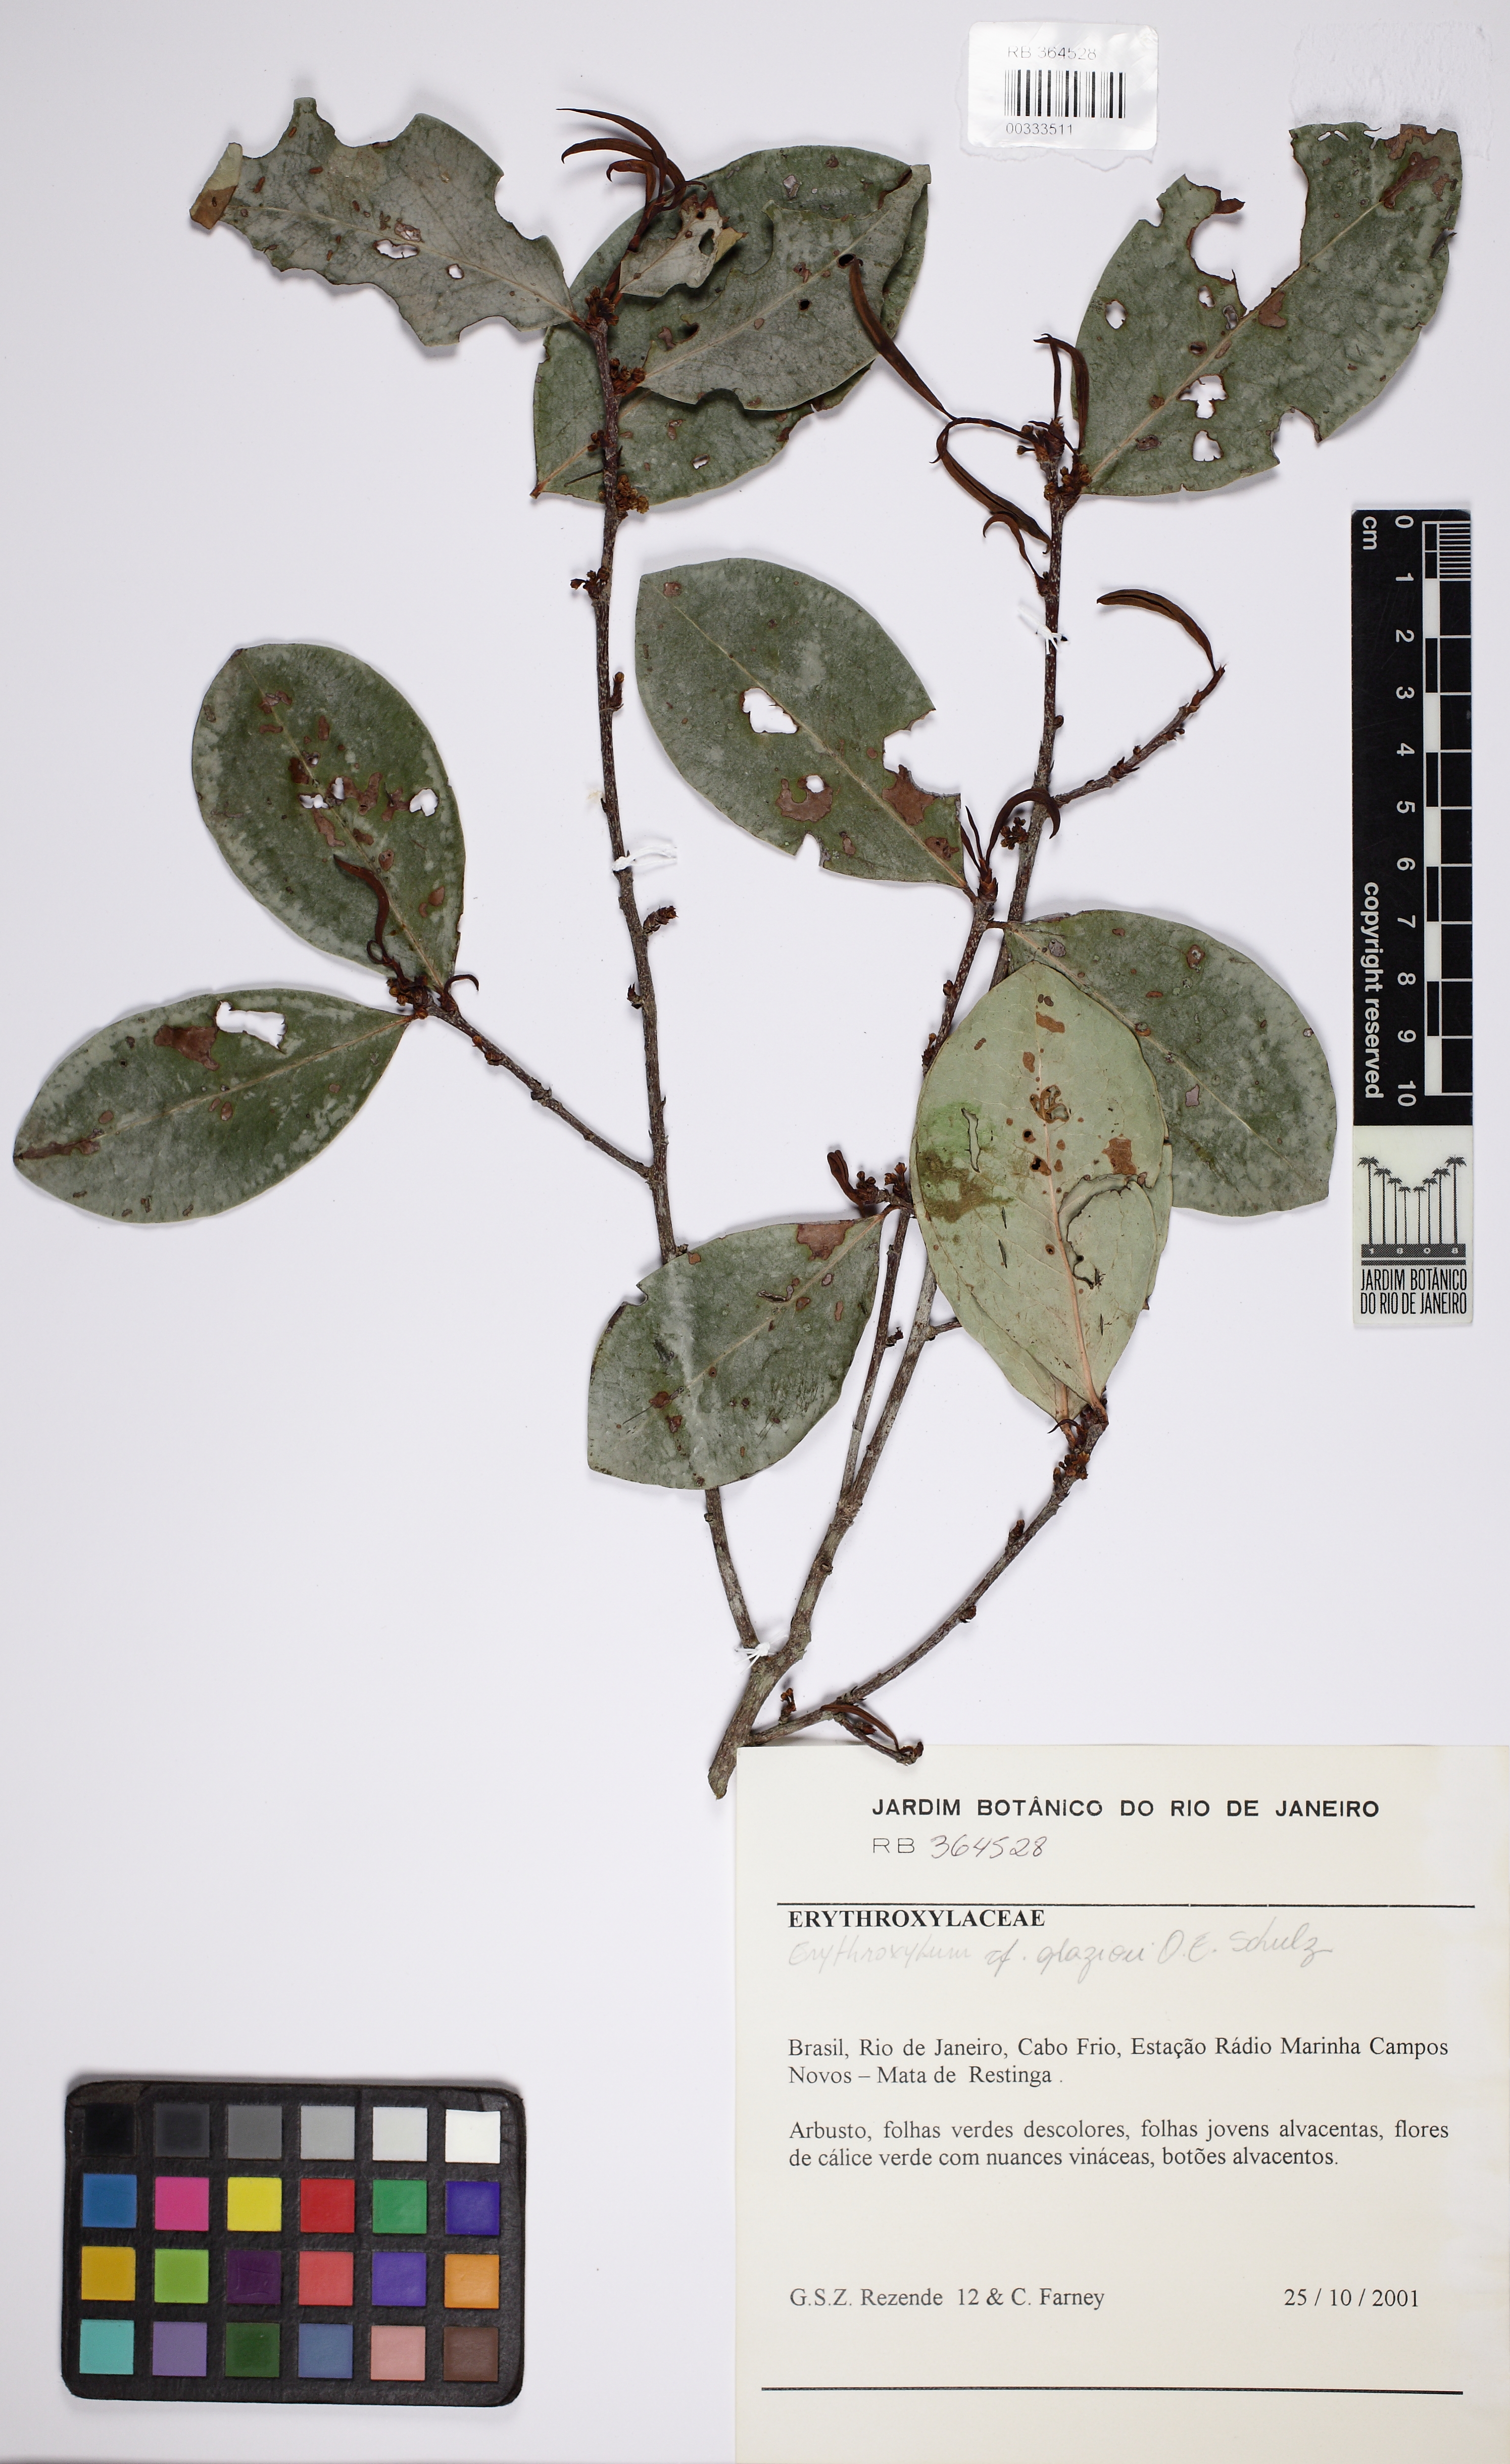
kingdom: Plantae
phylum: Tracheophyta
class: Magnoliopsida
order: Malpighiales
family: Erythroxylaceae
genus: Erythroxylum
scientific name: Erythroxylum glazioui
